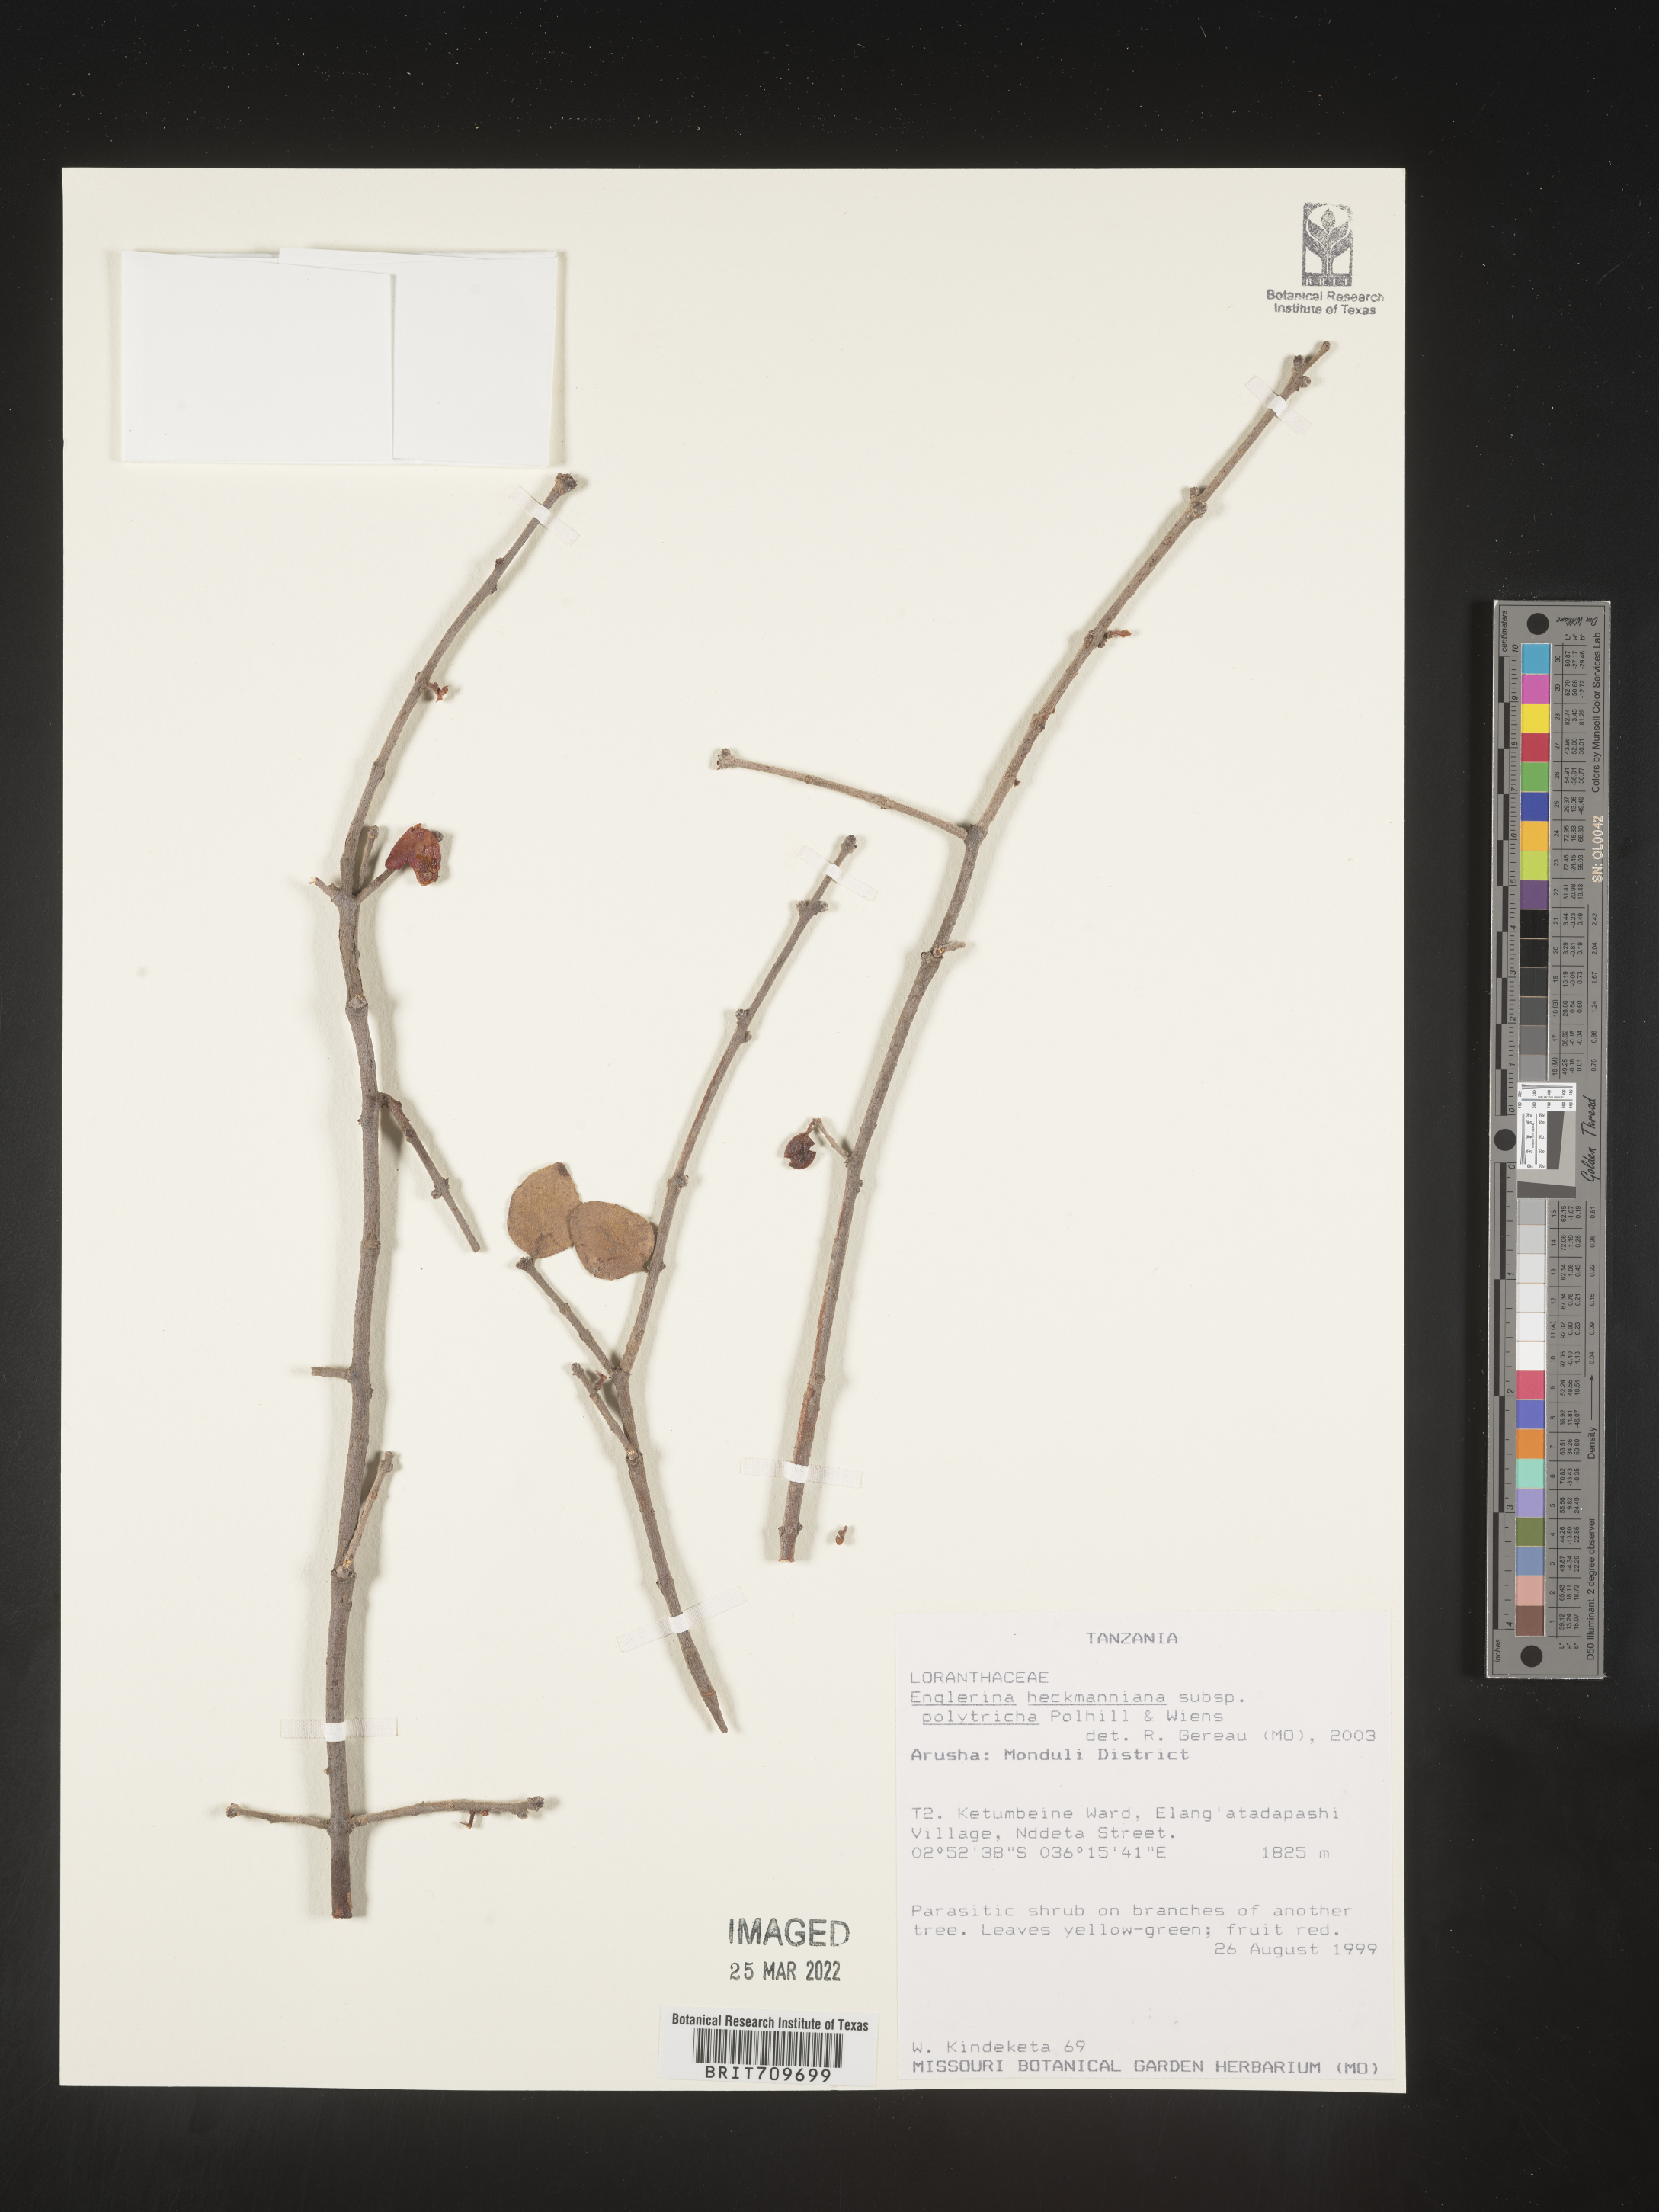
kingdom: Plantae
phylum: Tracheophyta
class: Magnoliopsida
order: Santalales
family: Loranthaceae
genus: Englerina
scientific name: Englerina
